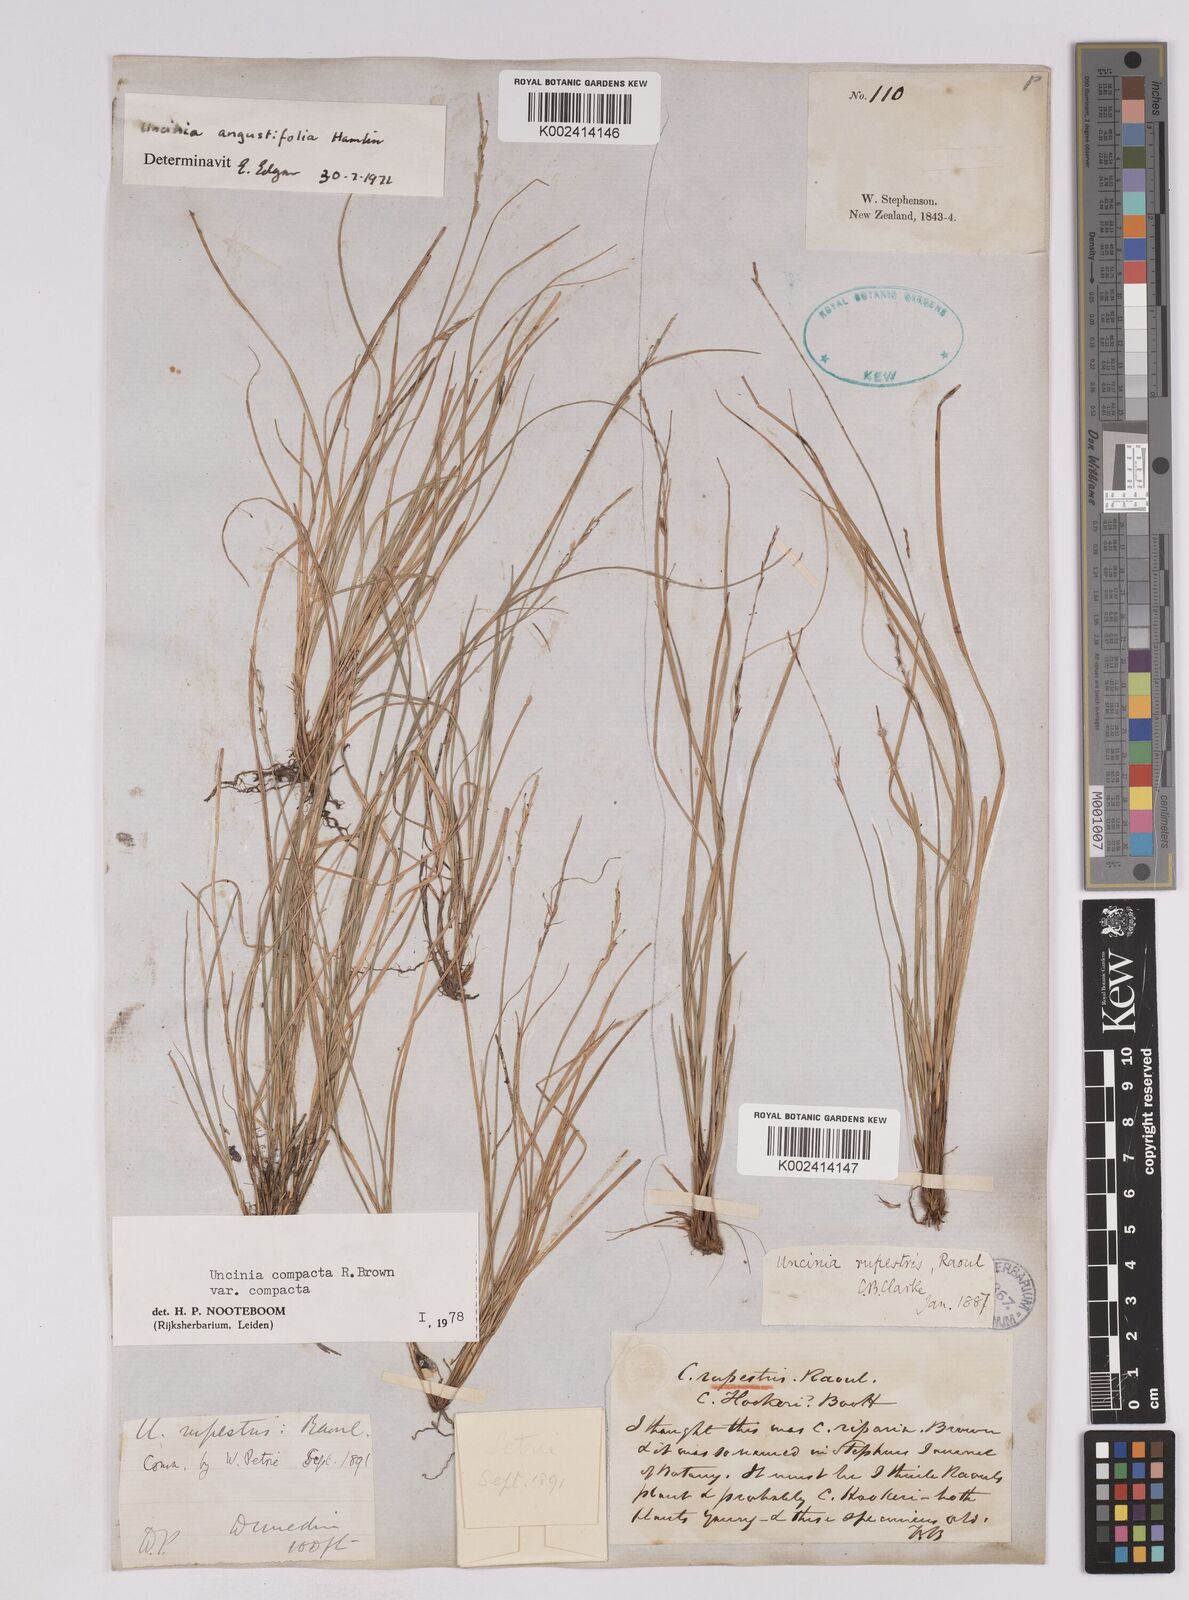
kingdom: Plantae
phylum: Tracheophyta
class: Liliopsida
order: Poales
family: Cyperaceae
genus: Carex
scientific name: Carex austrocompacta
